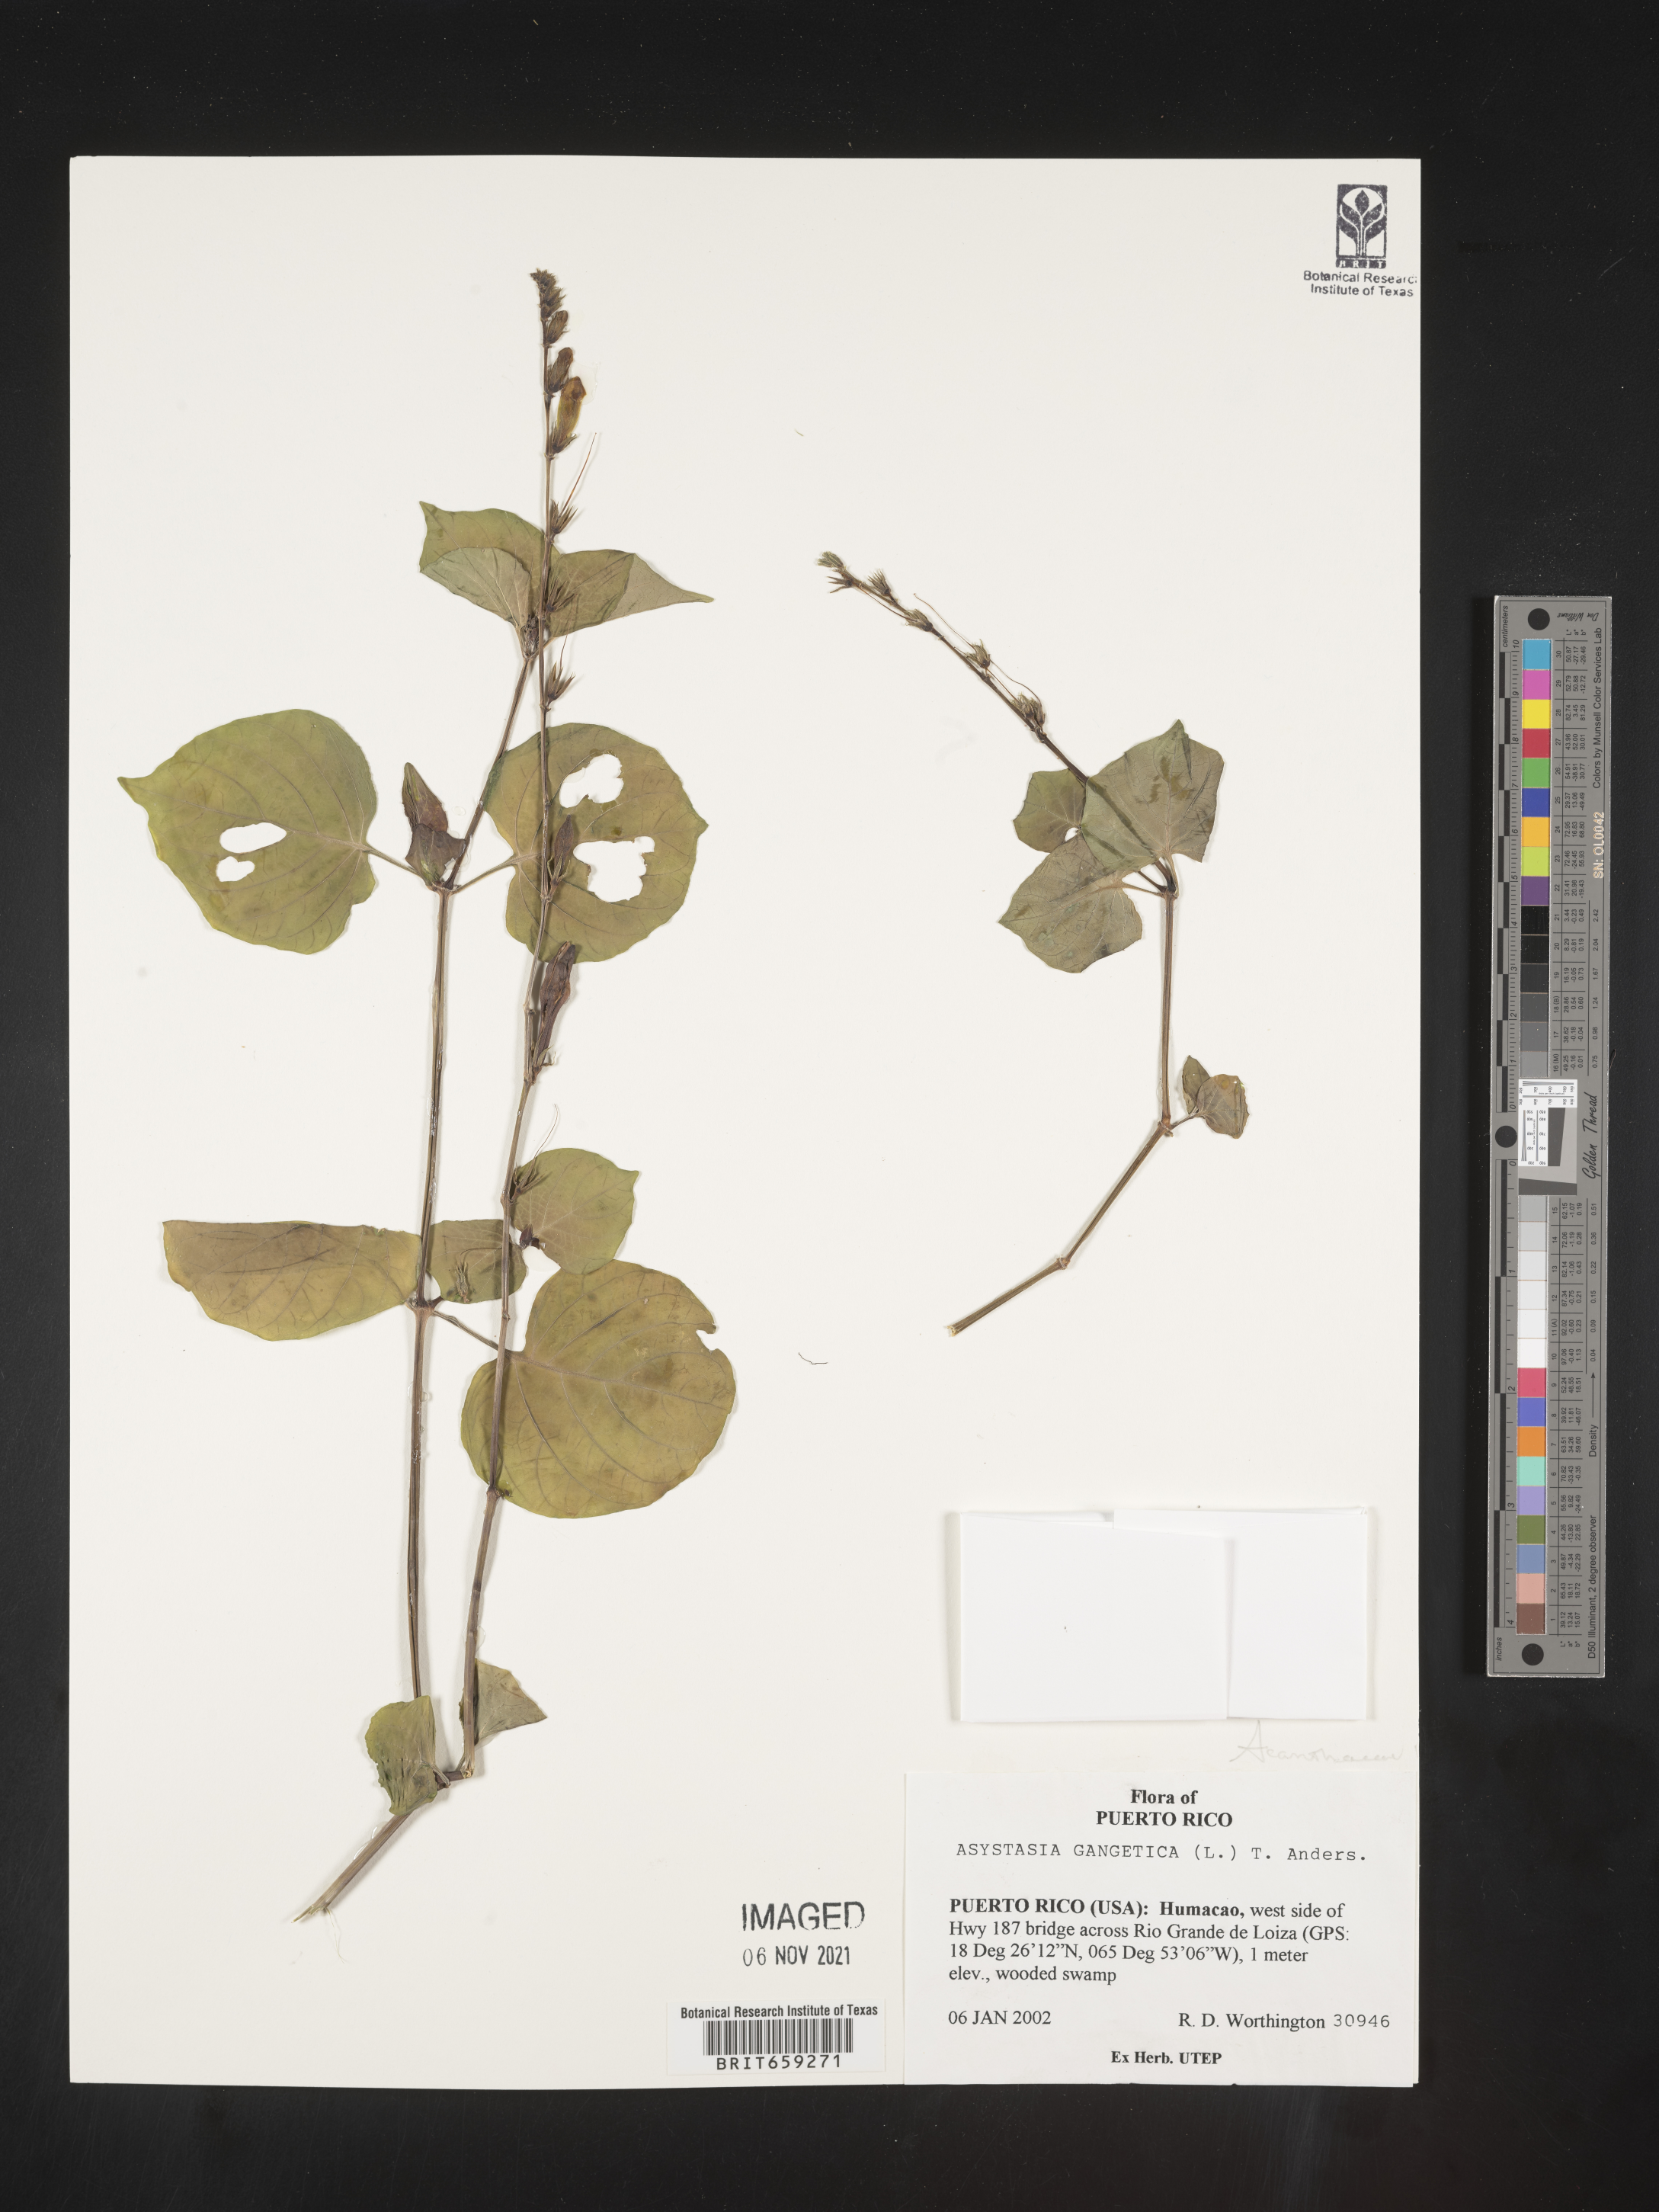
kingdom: Plantae
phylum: Tracheophyta
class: Magnoliopsida
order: Lamiales
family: Acanthaceae
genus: Asystasia
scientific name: Asystasia
